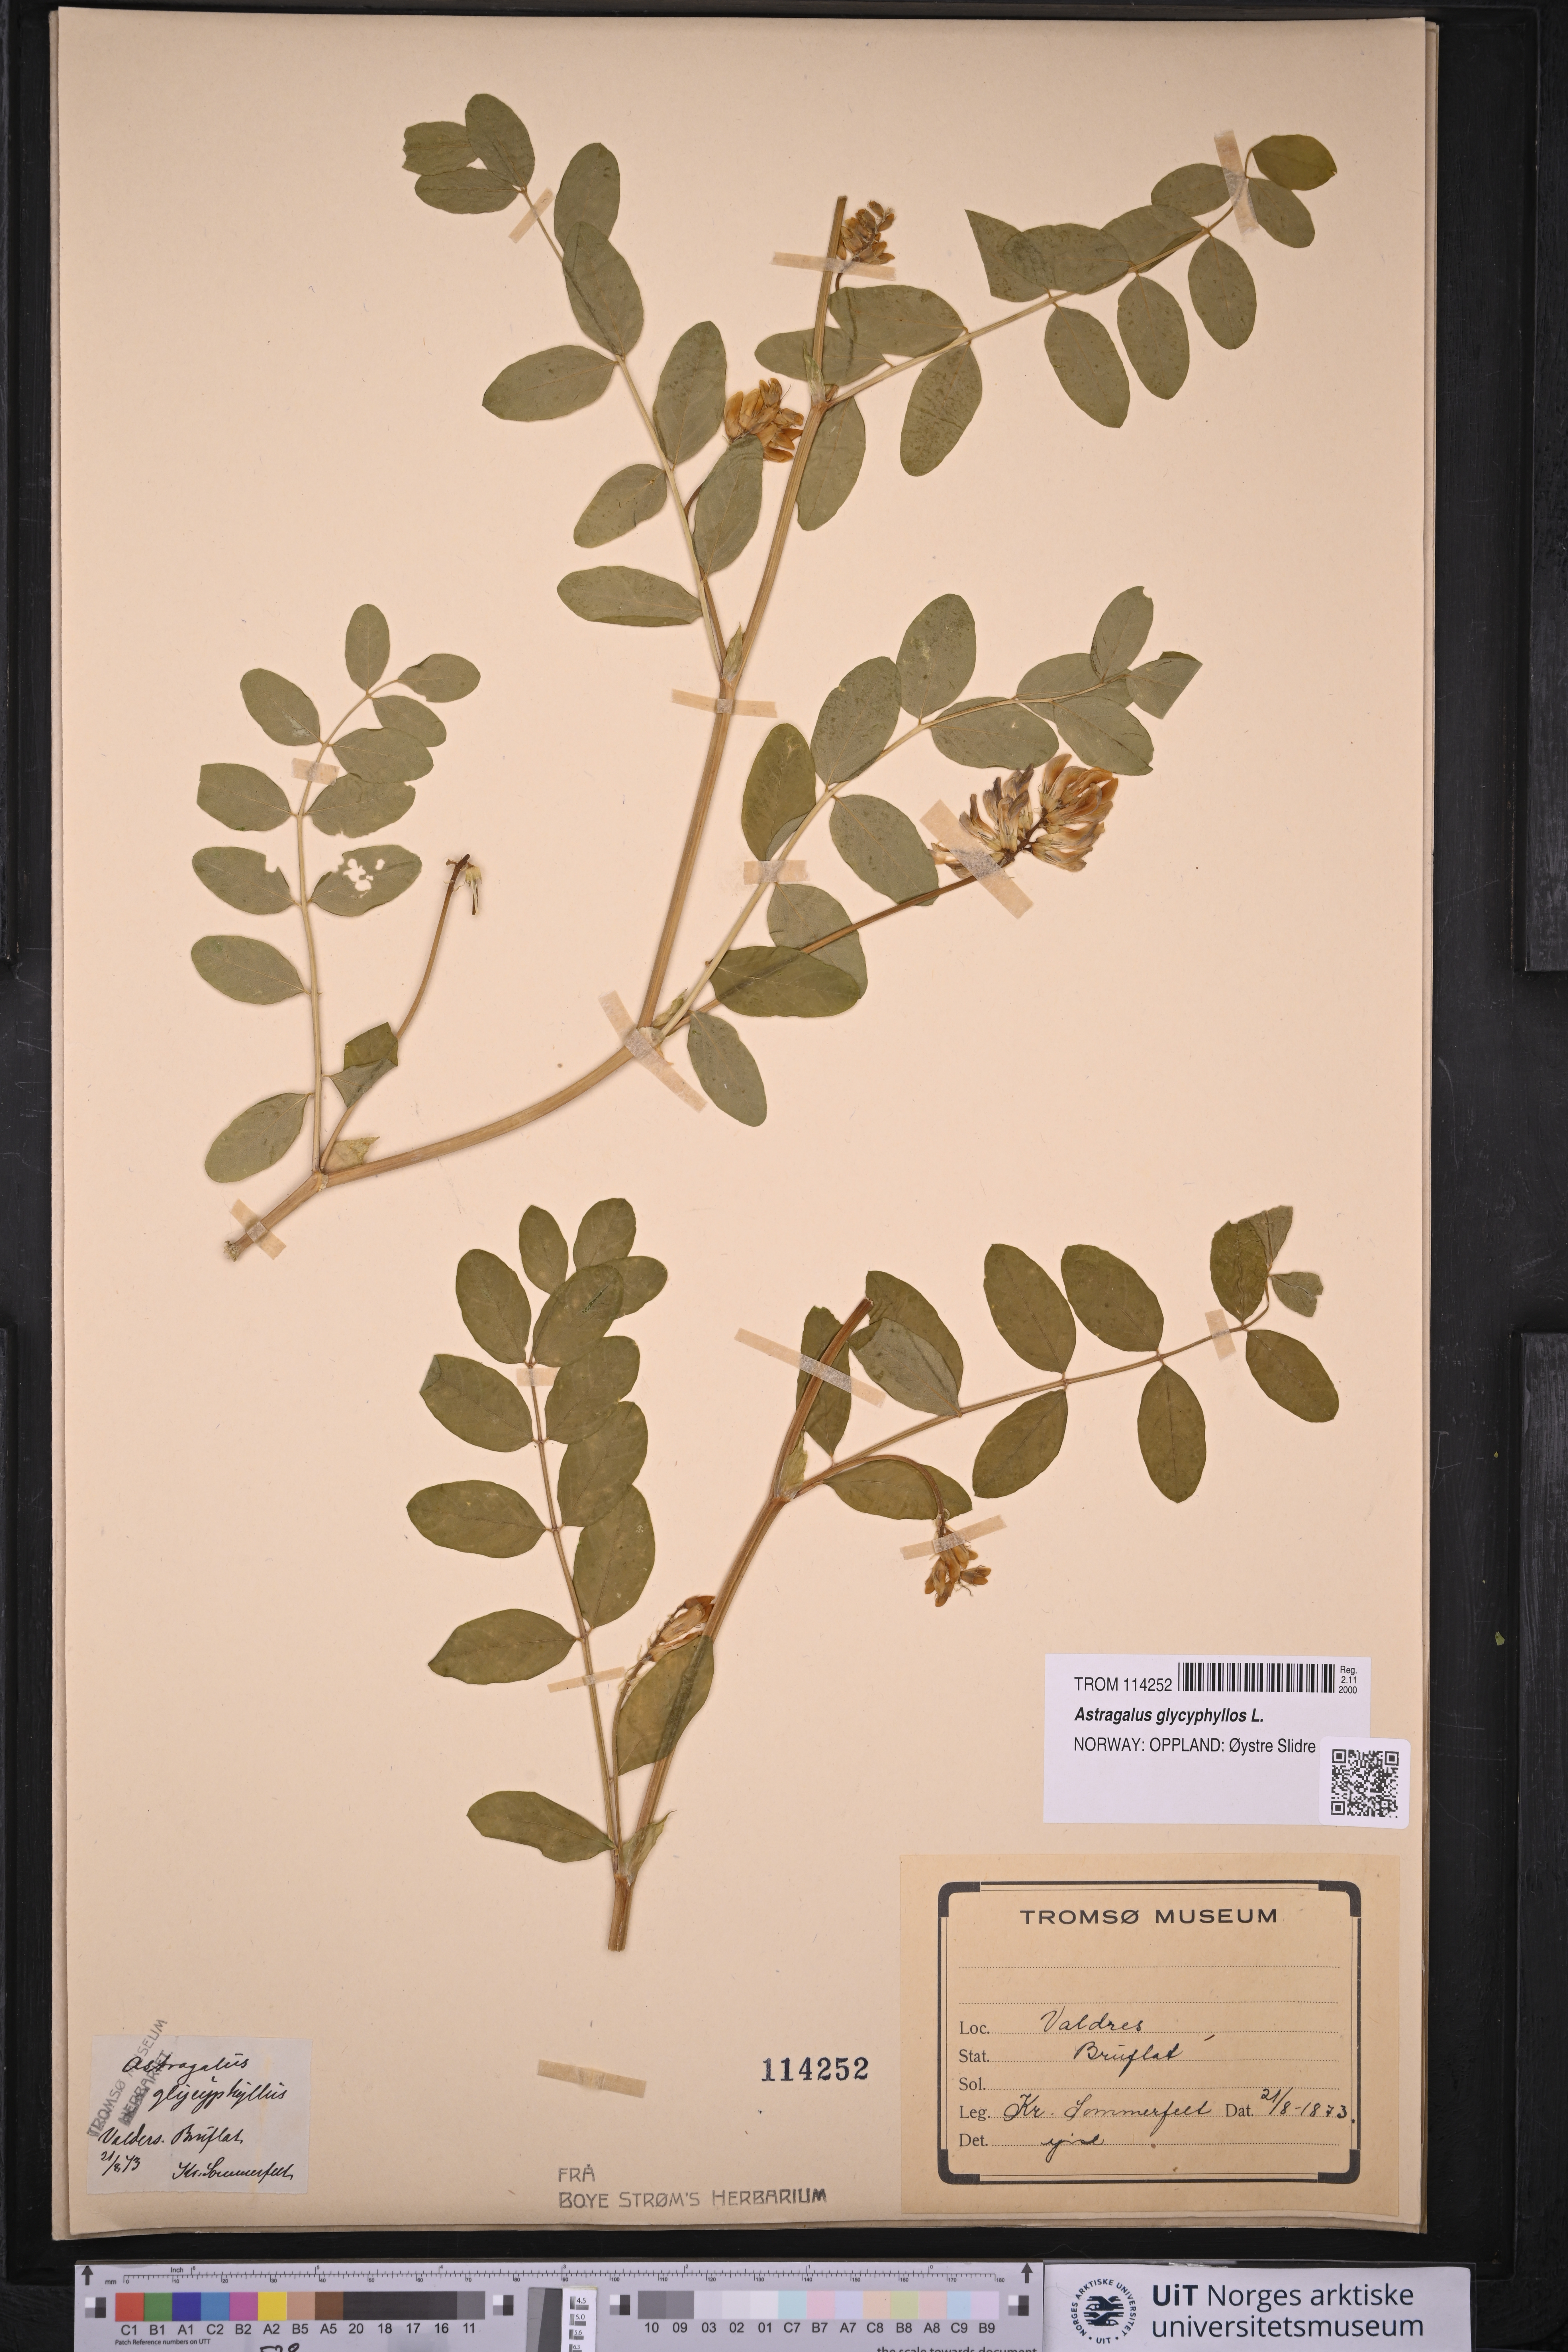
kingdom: Plantae
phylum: Tracheophyta
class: Magnoliopsida
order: Fabales
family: Fabaceae
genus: Astragalus
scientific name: Astragalus glycyphyllos
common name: Wild liquorice
